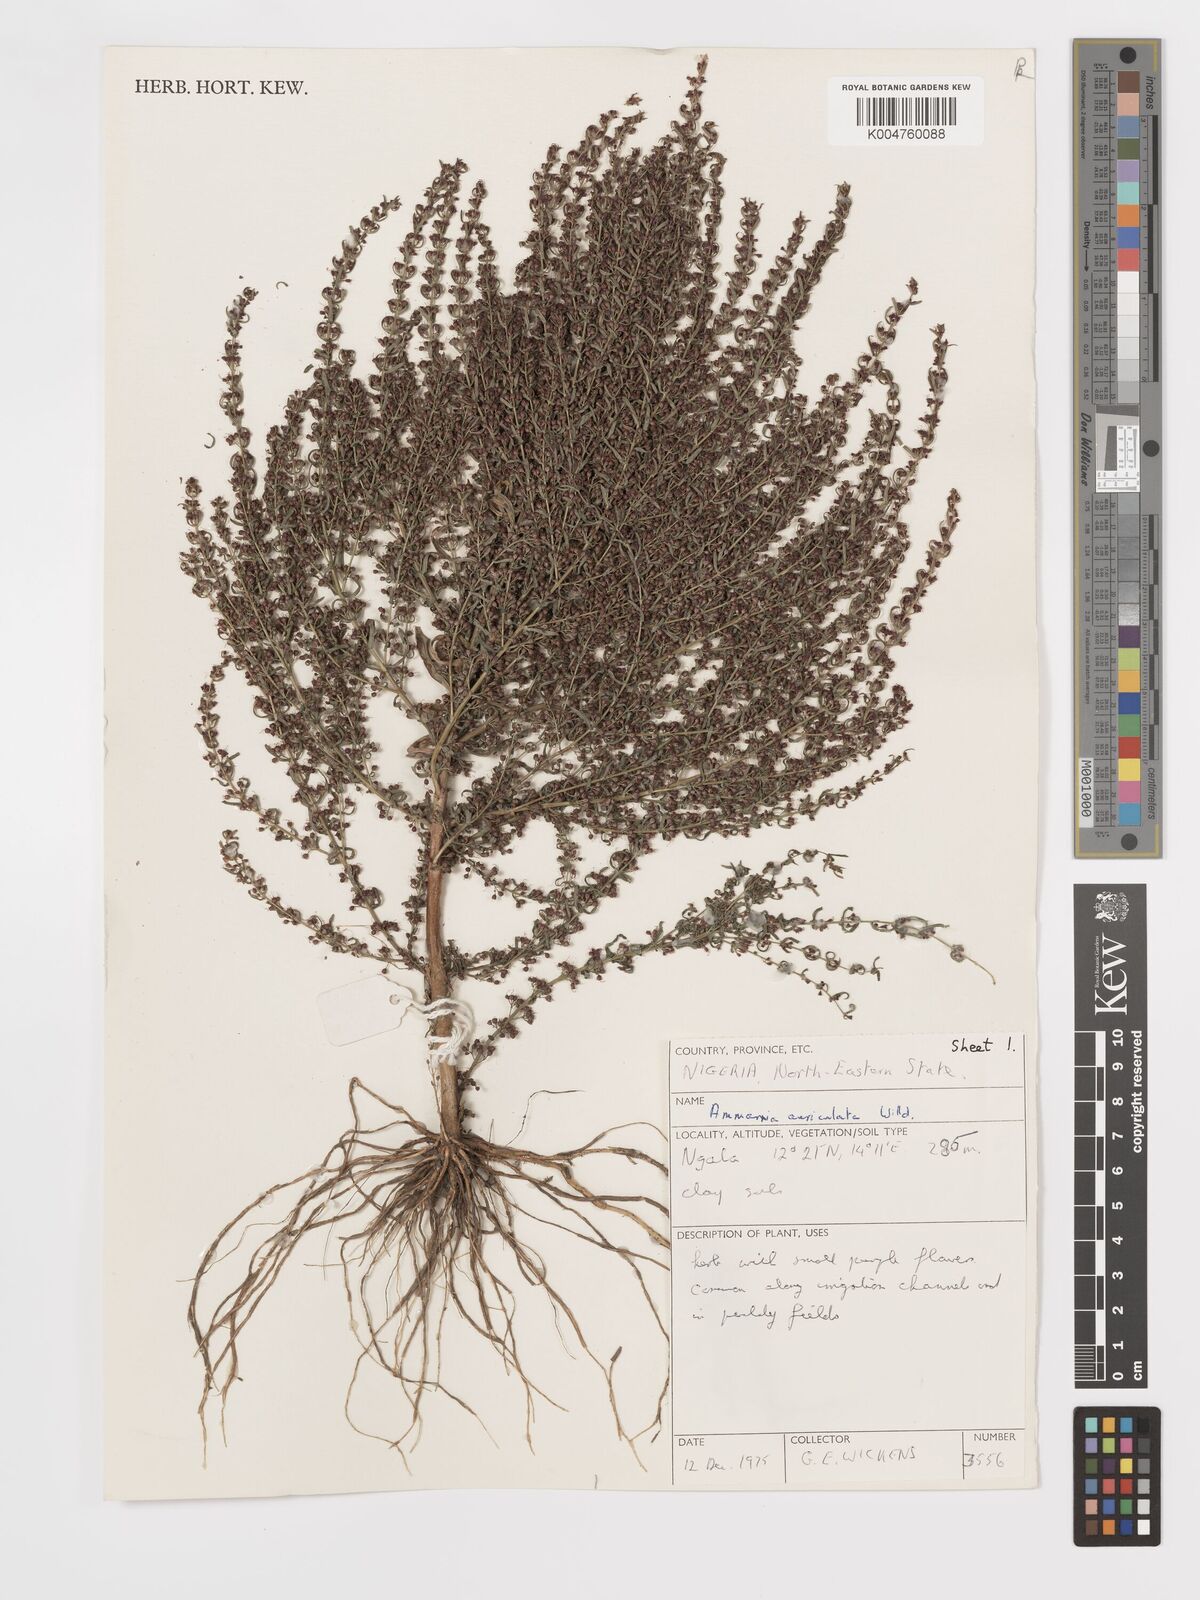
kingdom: Plantae
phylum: Tracheophyta
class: Magnoliopsida
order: Myrtales
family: Lythraceae
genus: Ammannia
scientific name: Ammannia auriculata
